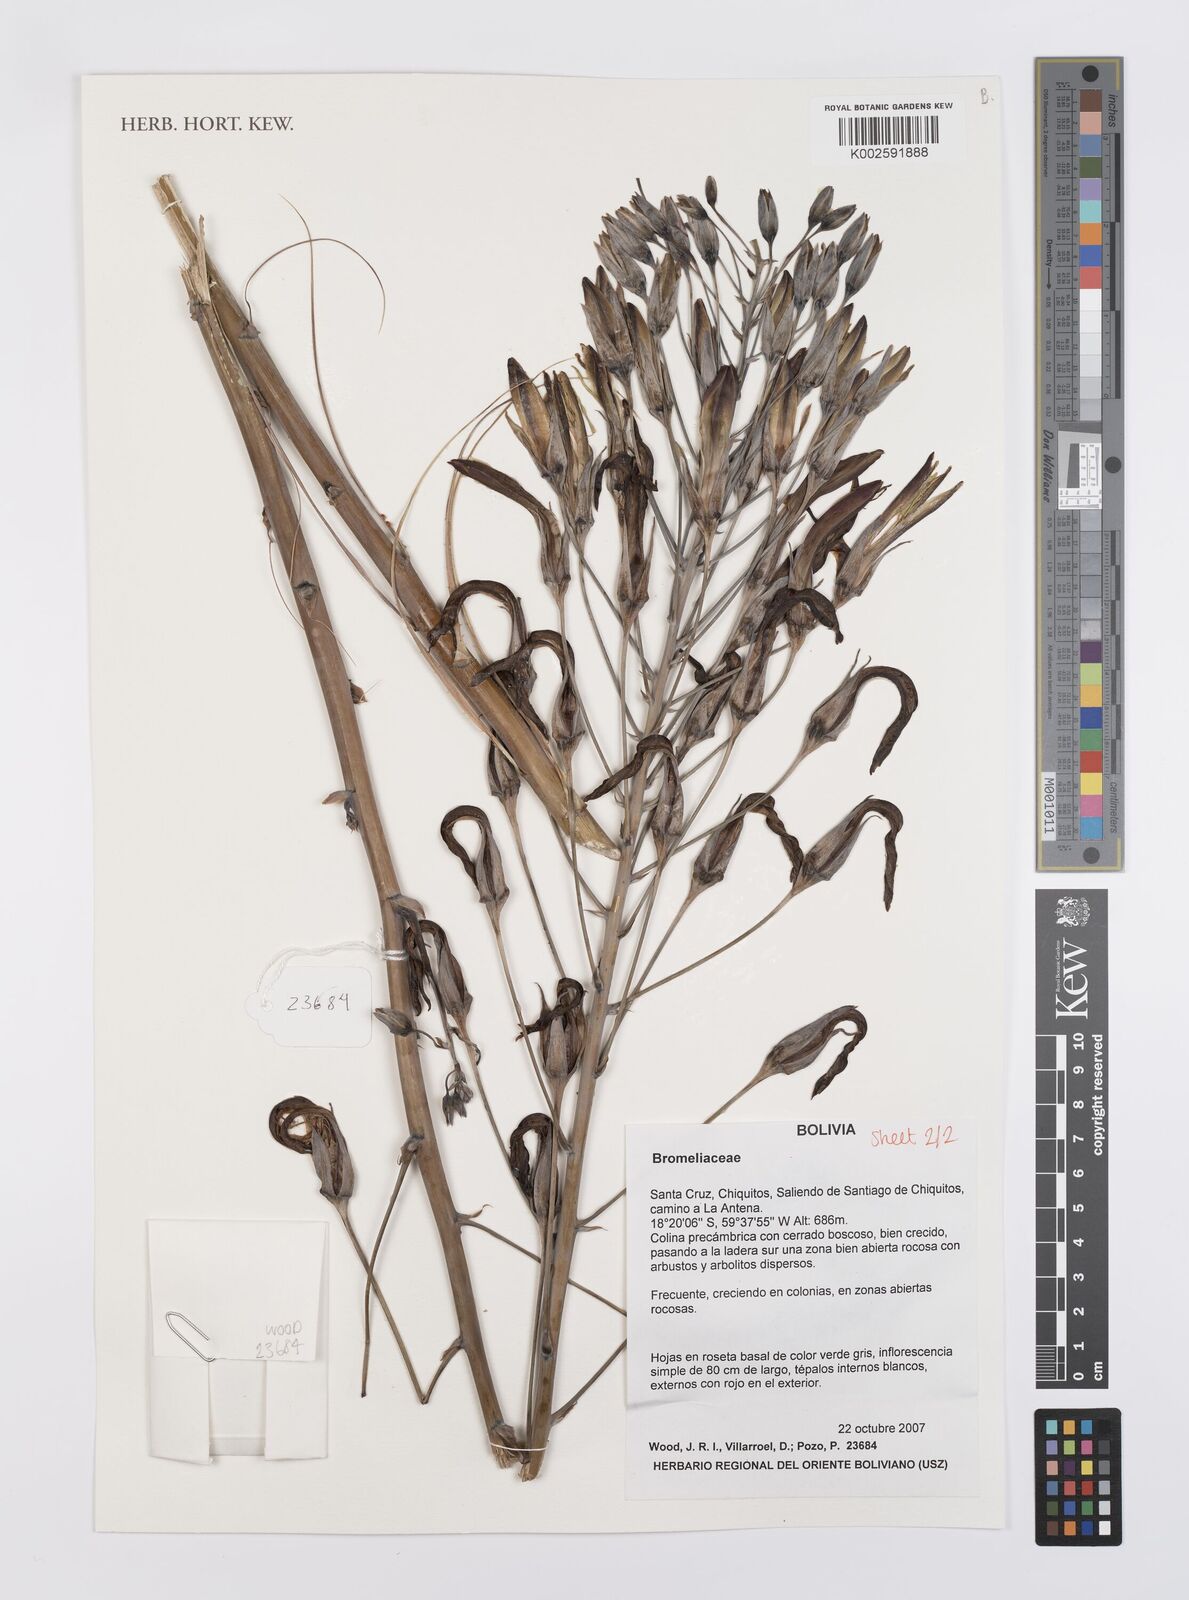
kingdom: Plantae
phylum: Tracheophyta
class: Liliopsida
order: Poales
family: Bromeliaceae
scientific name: Bromeliaceae
